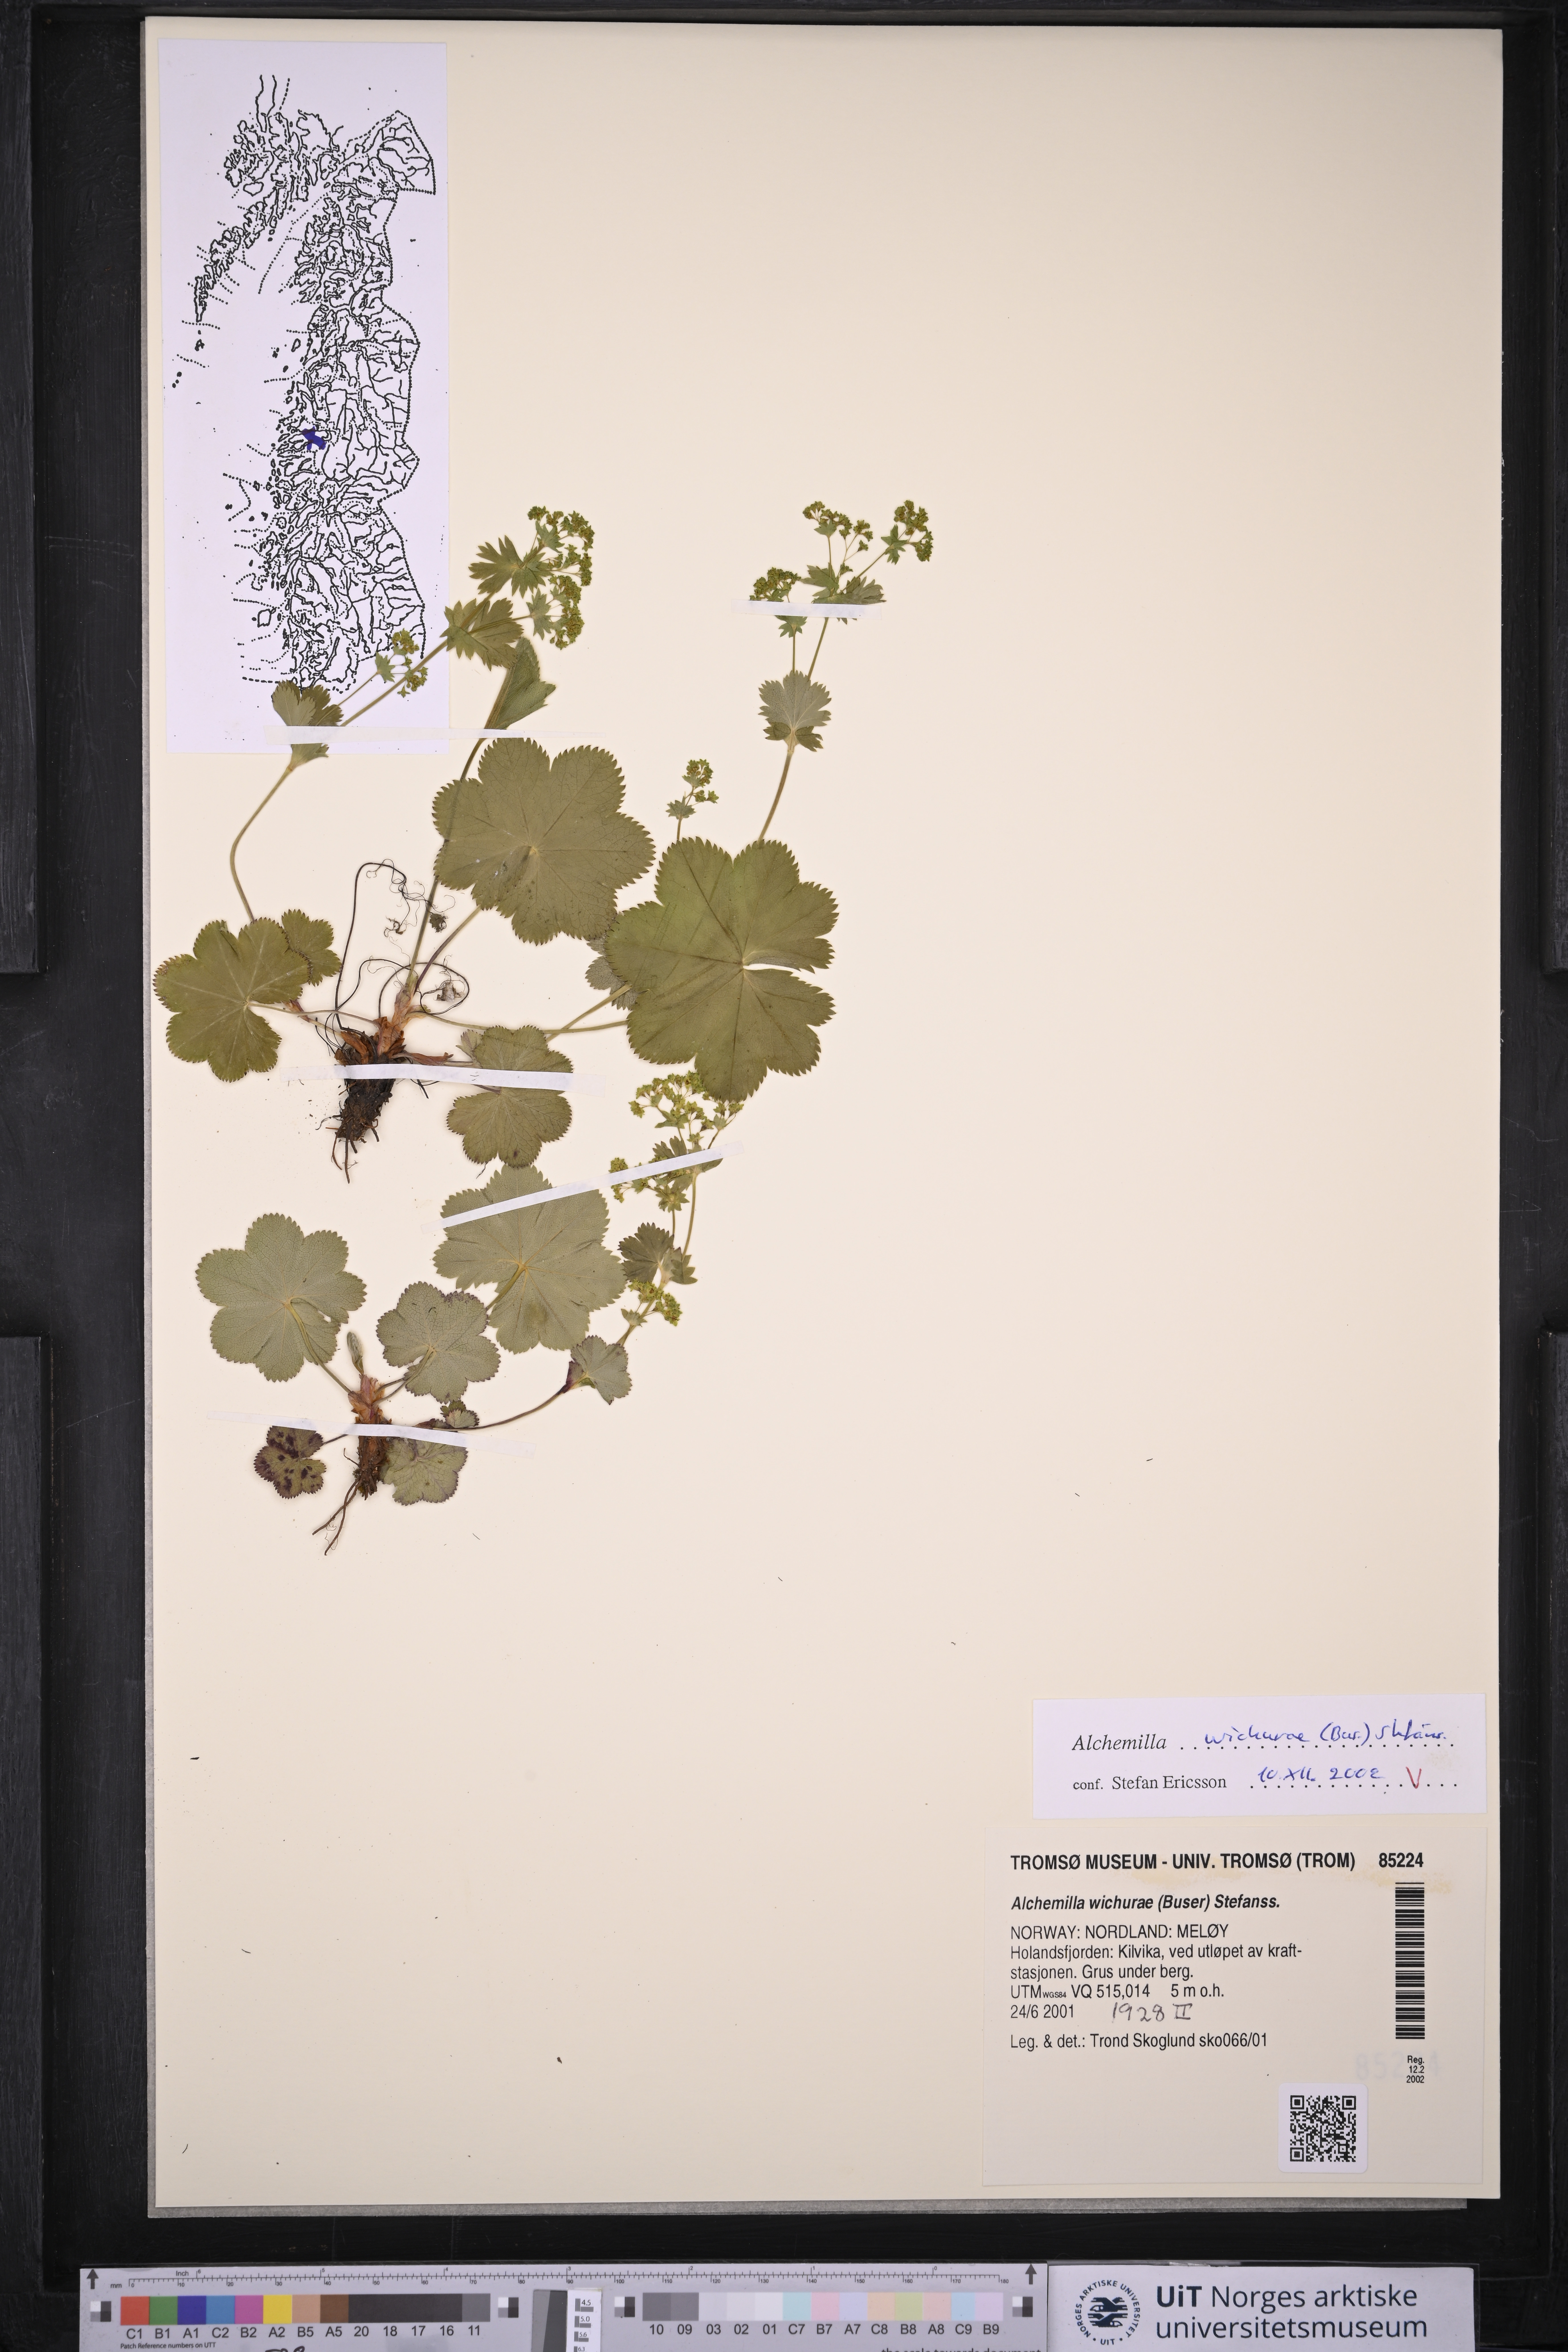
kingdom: Plantae
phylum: Tracheophyta
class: Magnoliopsida
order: Rosales
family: Rosaceae
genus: Alchemilla
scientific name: Alchemilla wichurae
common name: Rock lady's mantle
